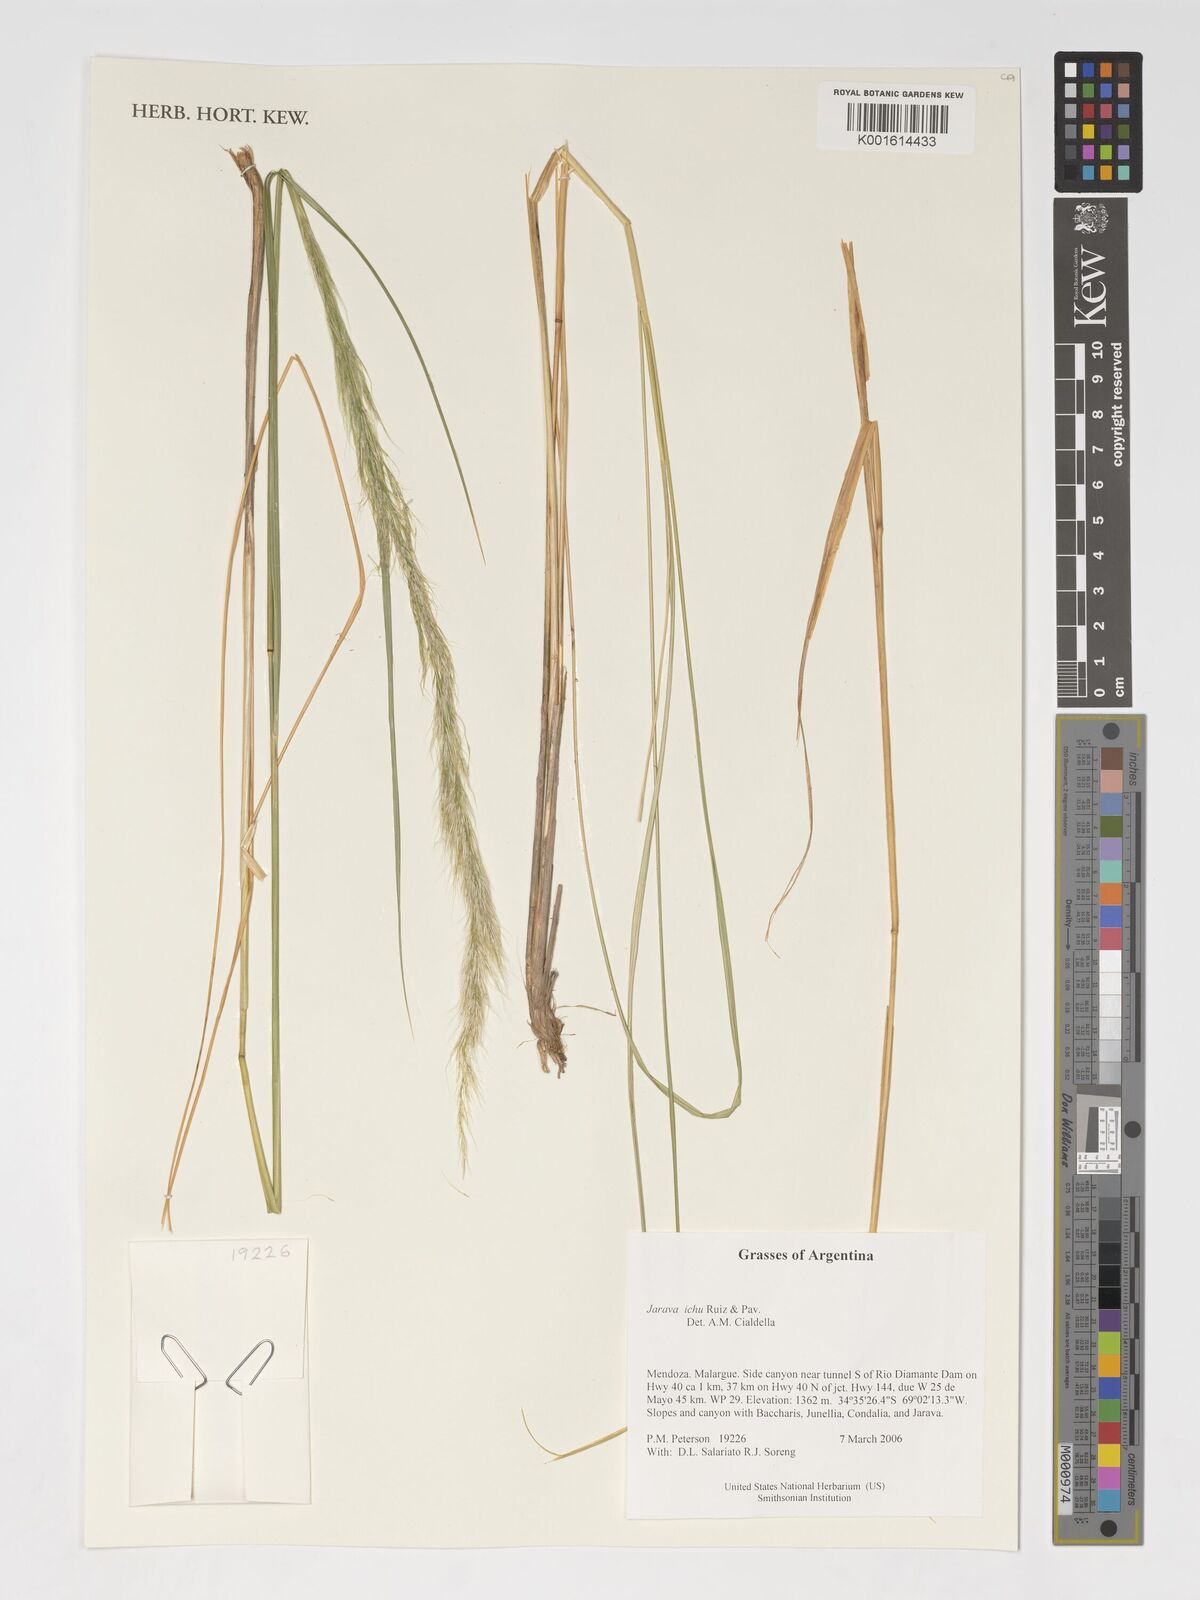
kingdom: Plantae
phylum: Tracheophyta
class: Liliopsida
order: Poales
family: Poaceae
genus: Jarava
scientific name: Jarava ichu
